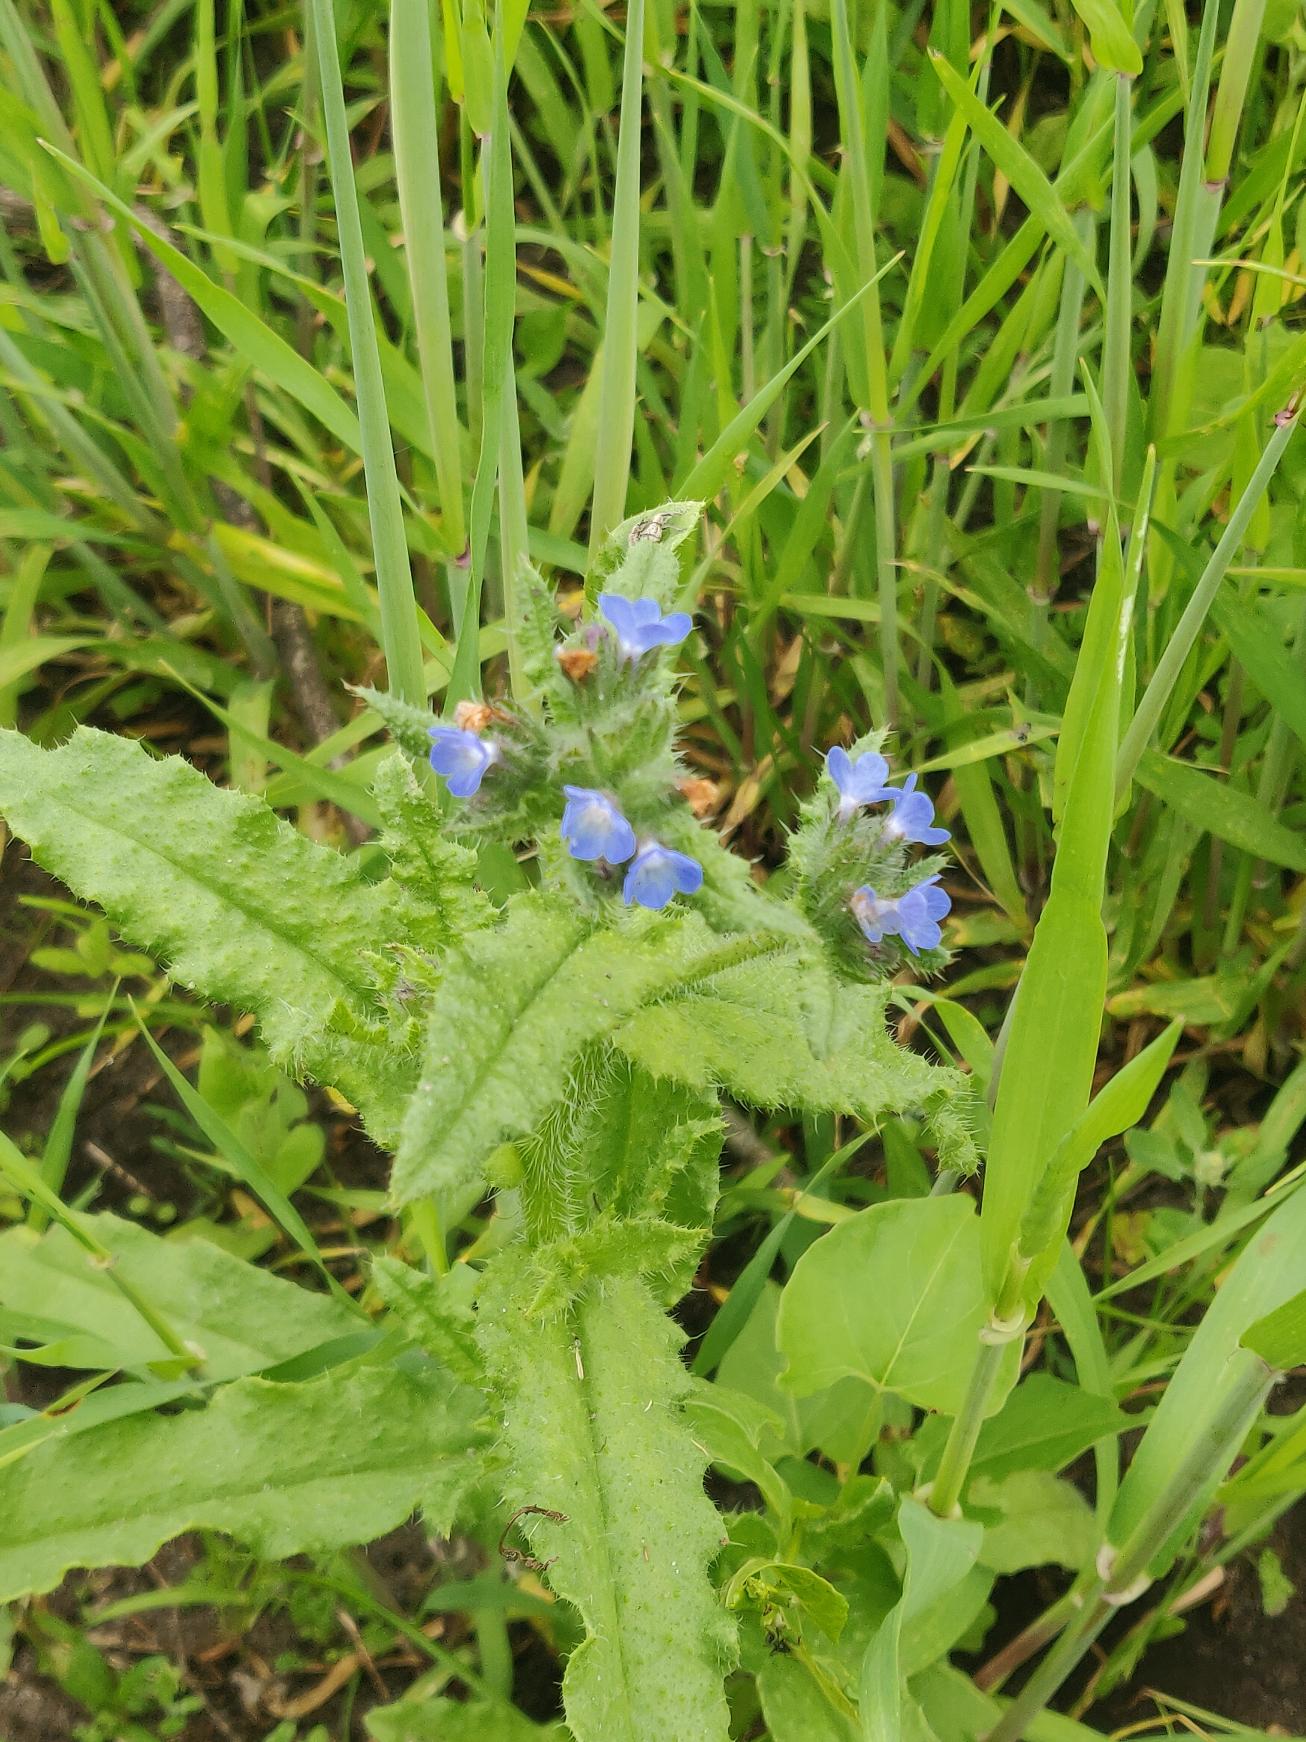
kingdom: Plantae
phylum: Tracheophyta
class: Magnoliopsida
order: Boraginales
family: Boraginaceae
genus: Lycopsis
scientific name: Lycopsis arvensis
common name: Krumhals
